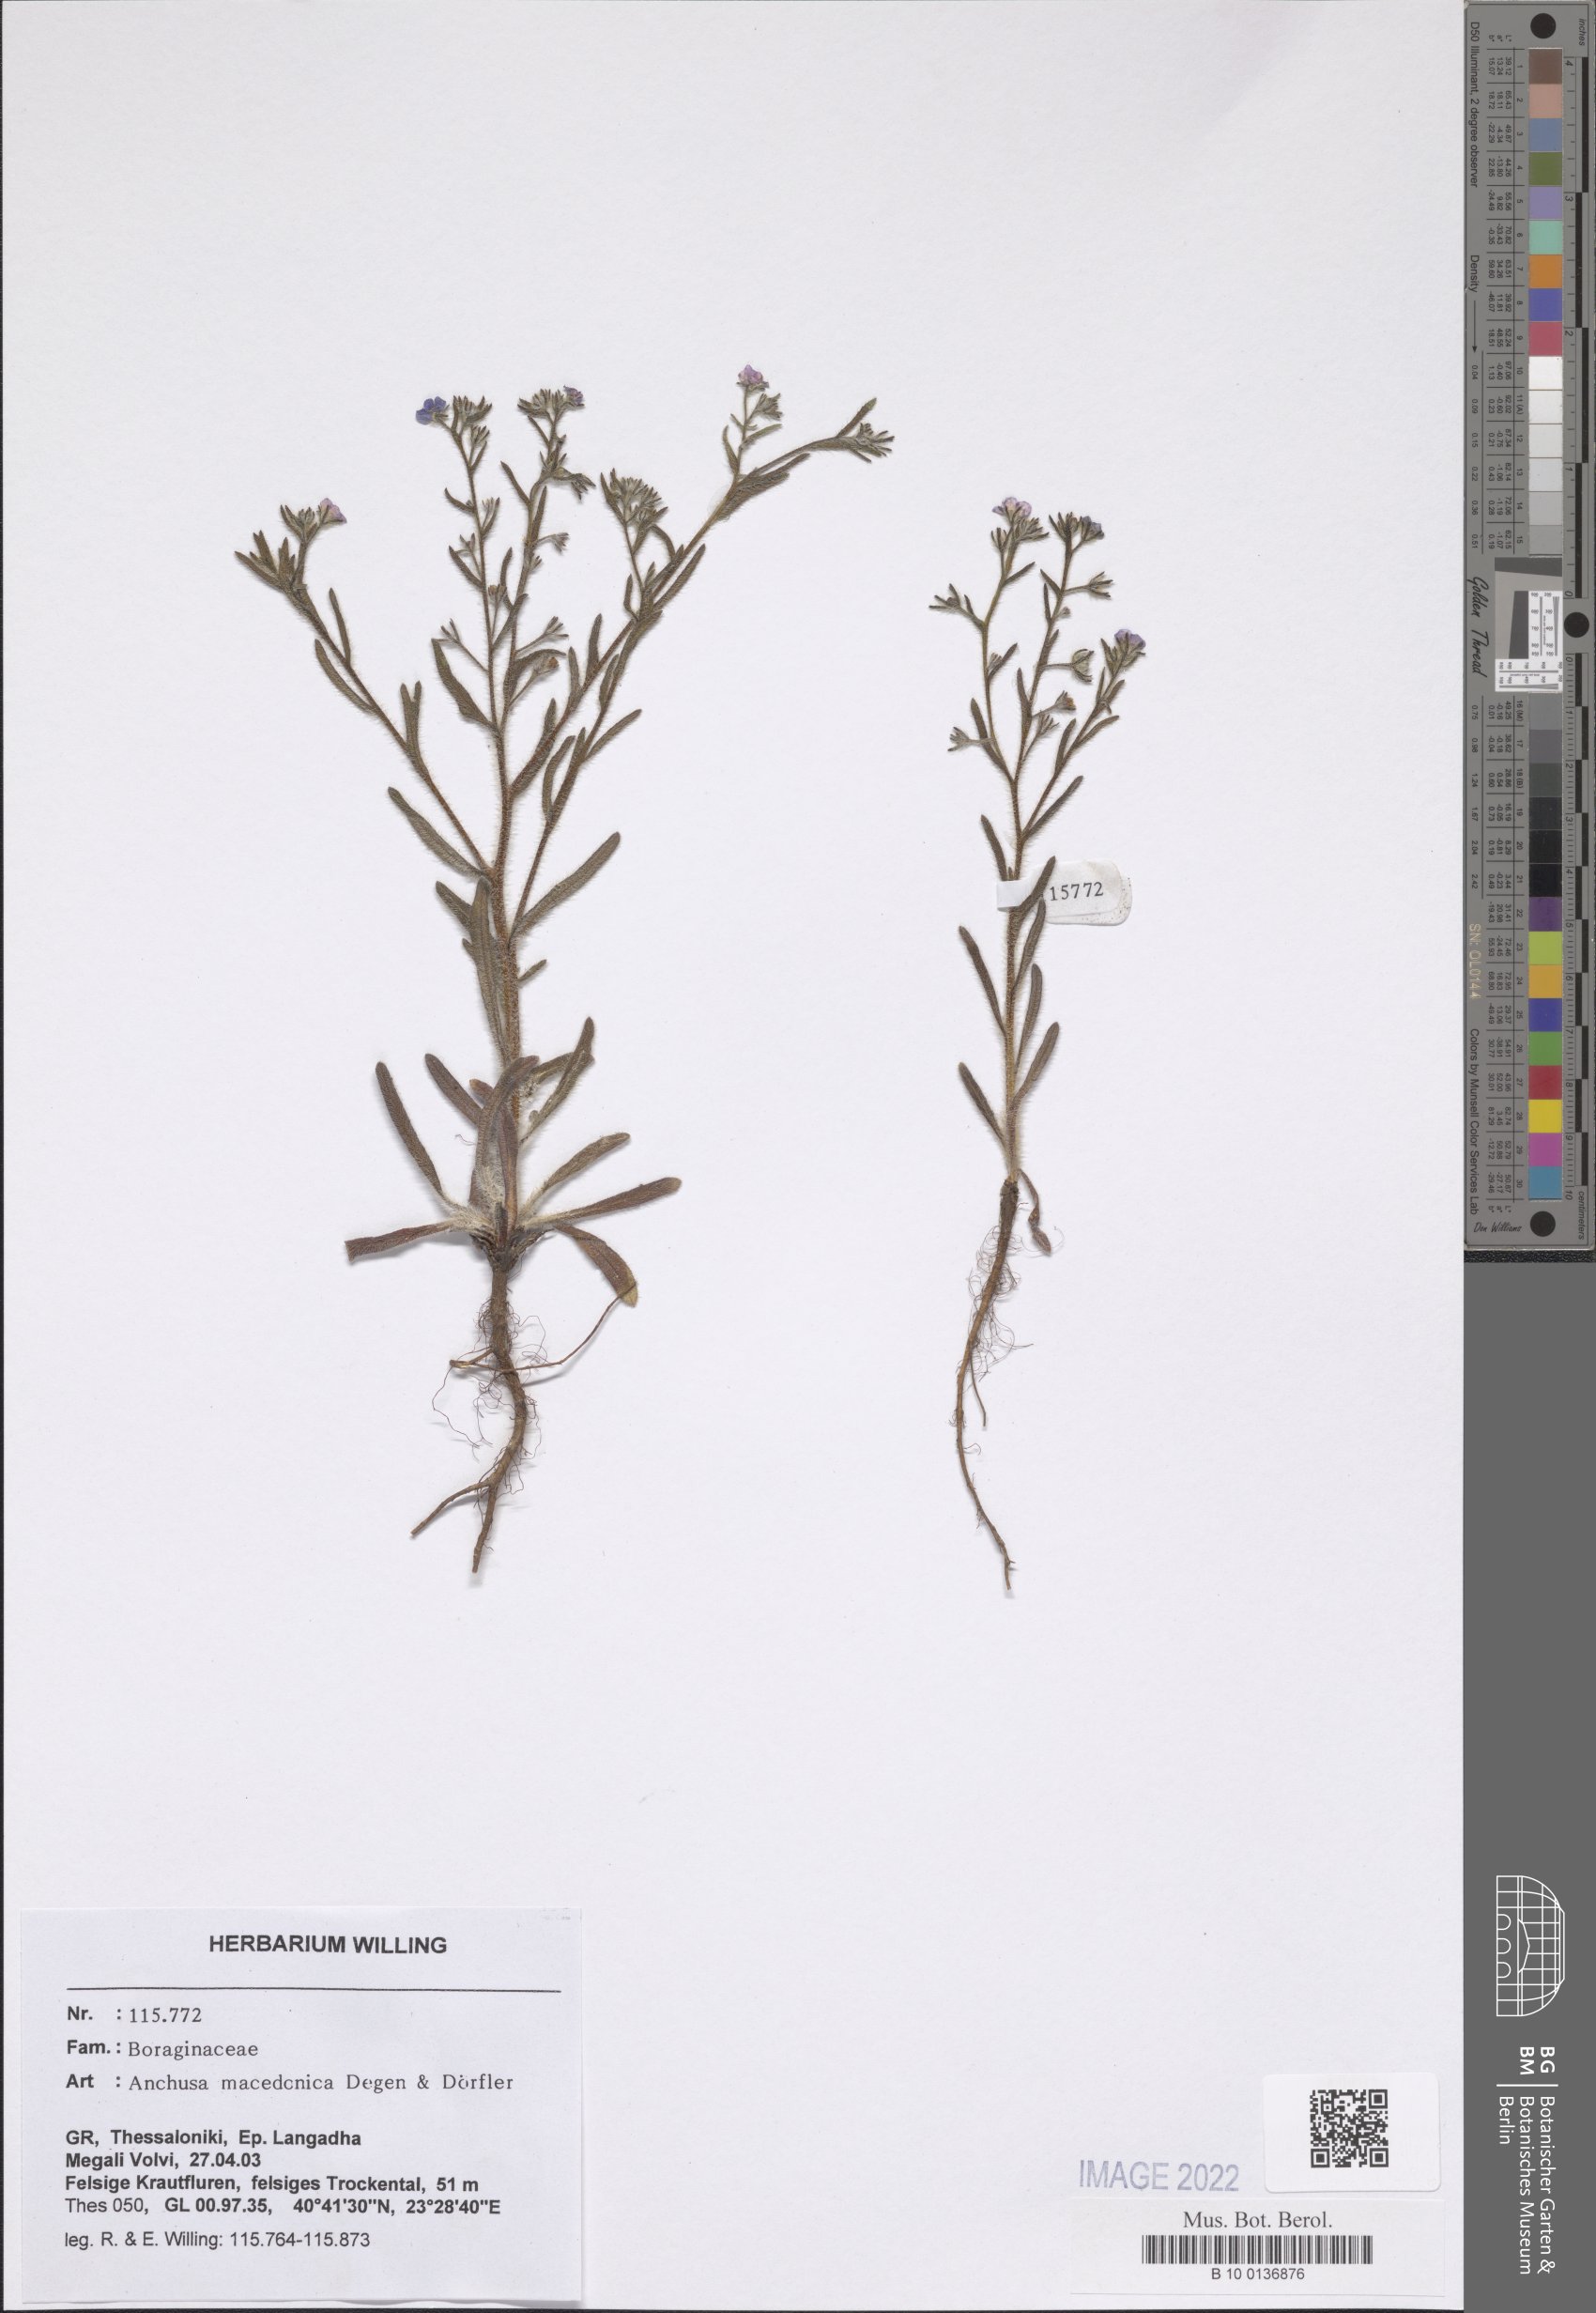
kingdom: Plantae
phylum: Tracheophyta
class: Magnoliopsida
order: Boraginales
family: Boraginaceae
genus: Anchusa
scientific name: Anchusa officinalis
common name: Alkanet
